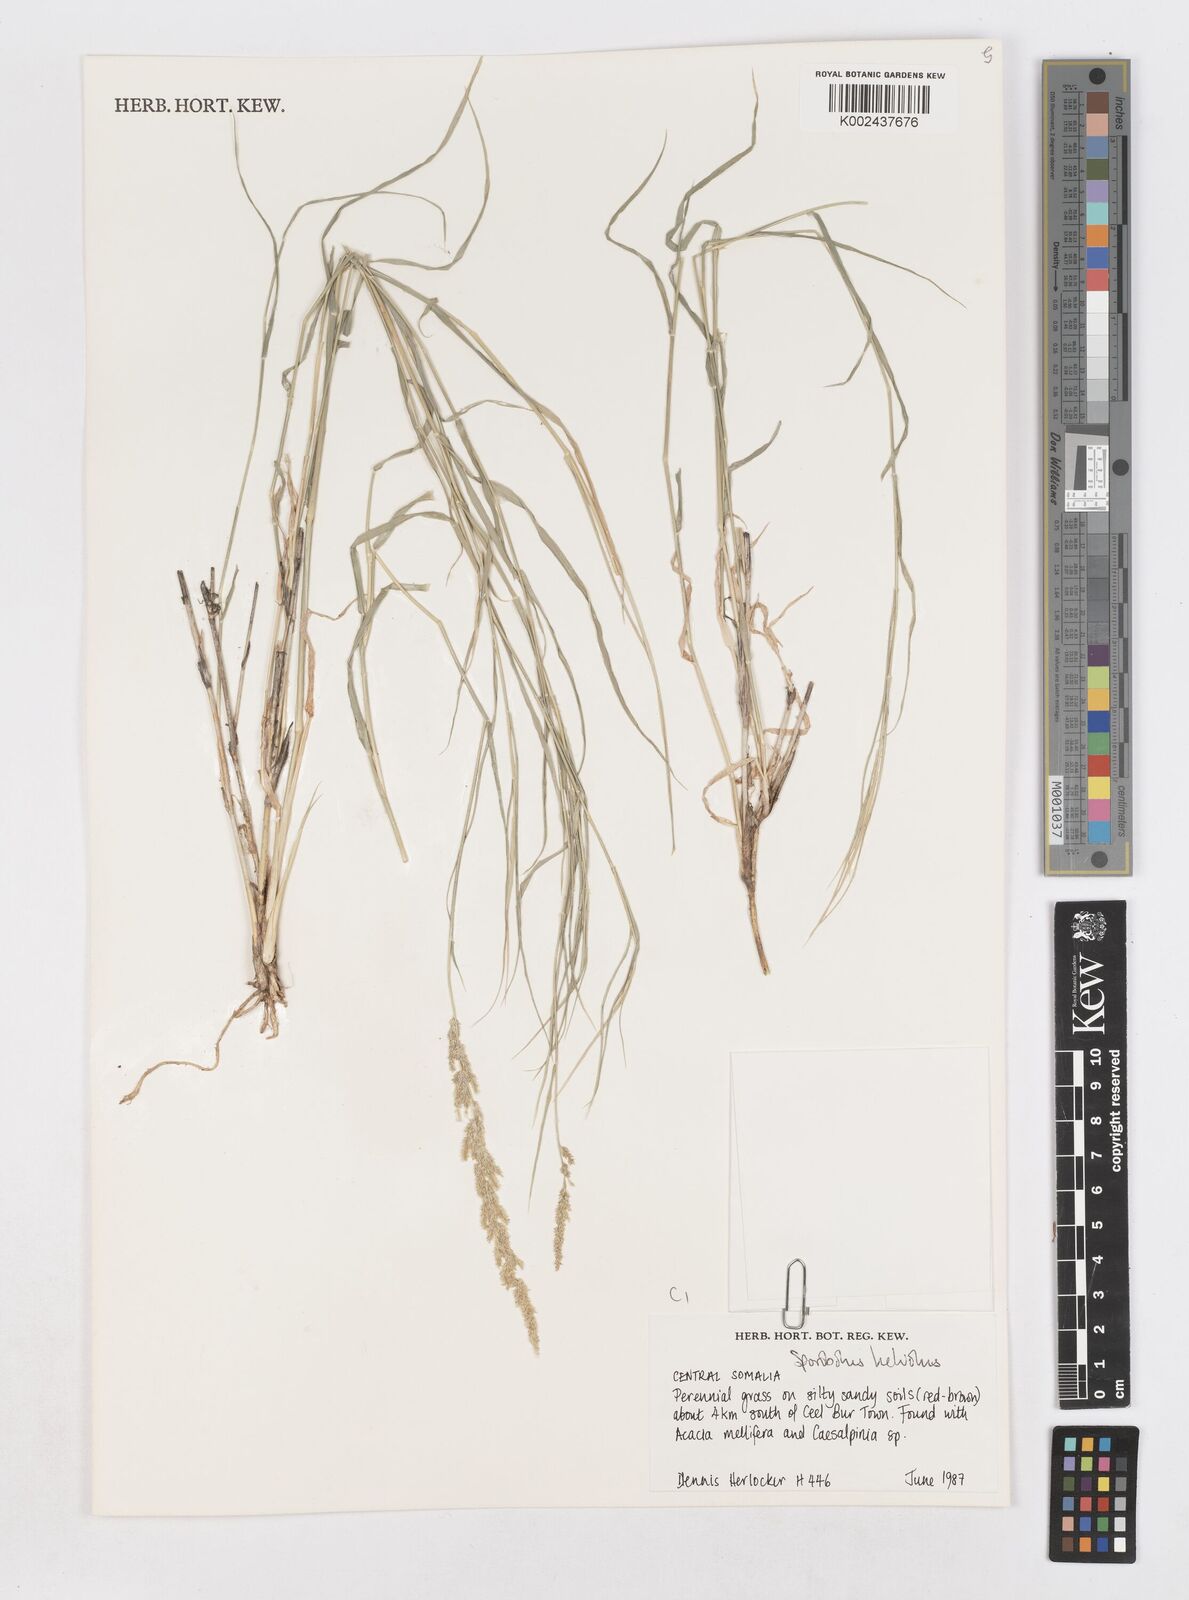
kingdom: Plantae
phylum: Tracheophyta
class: Liliopsida
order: Poales
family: Poaceae
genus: Sporobolus
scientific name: Sporobolus helvolus
